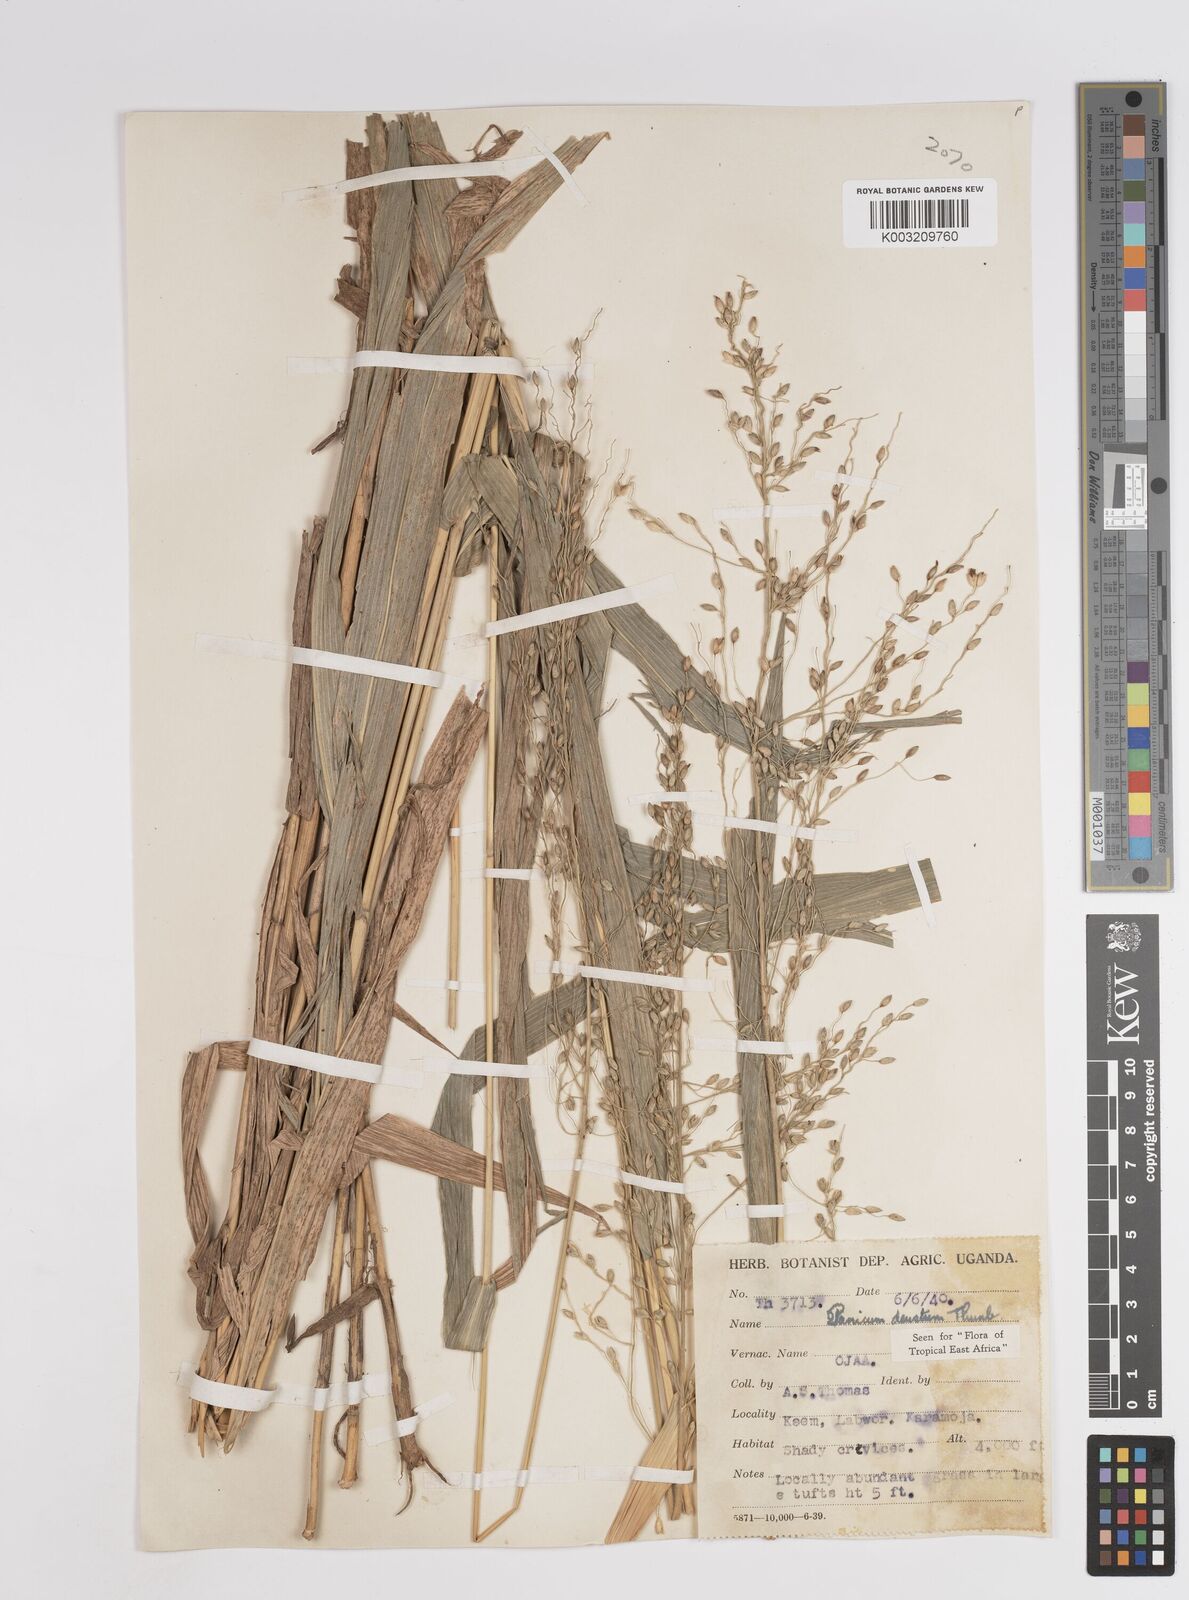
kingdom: Plantae
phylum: Tracheophyta
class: Liliopsida
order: Poales
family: Poaceae
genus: Panicum
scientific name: Panicum deustum
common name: Reed panicum
